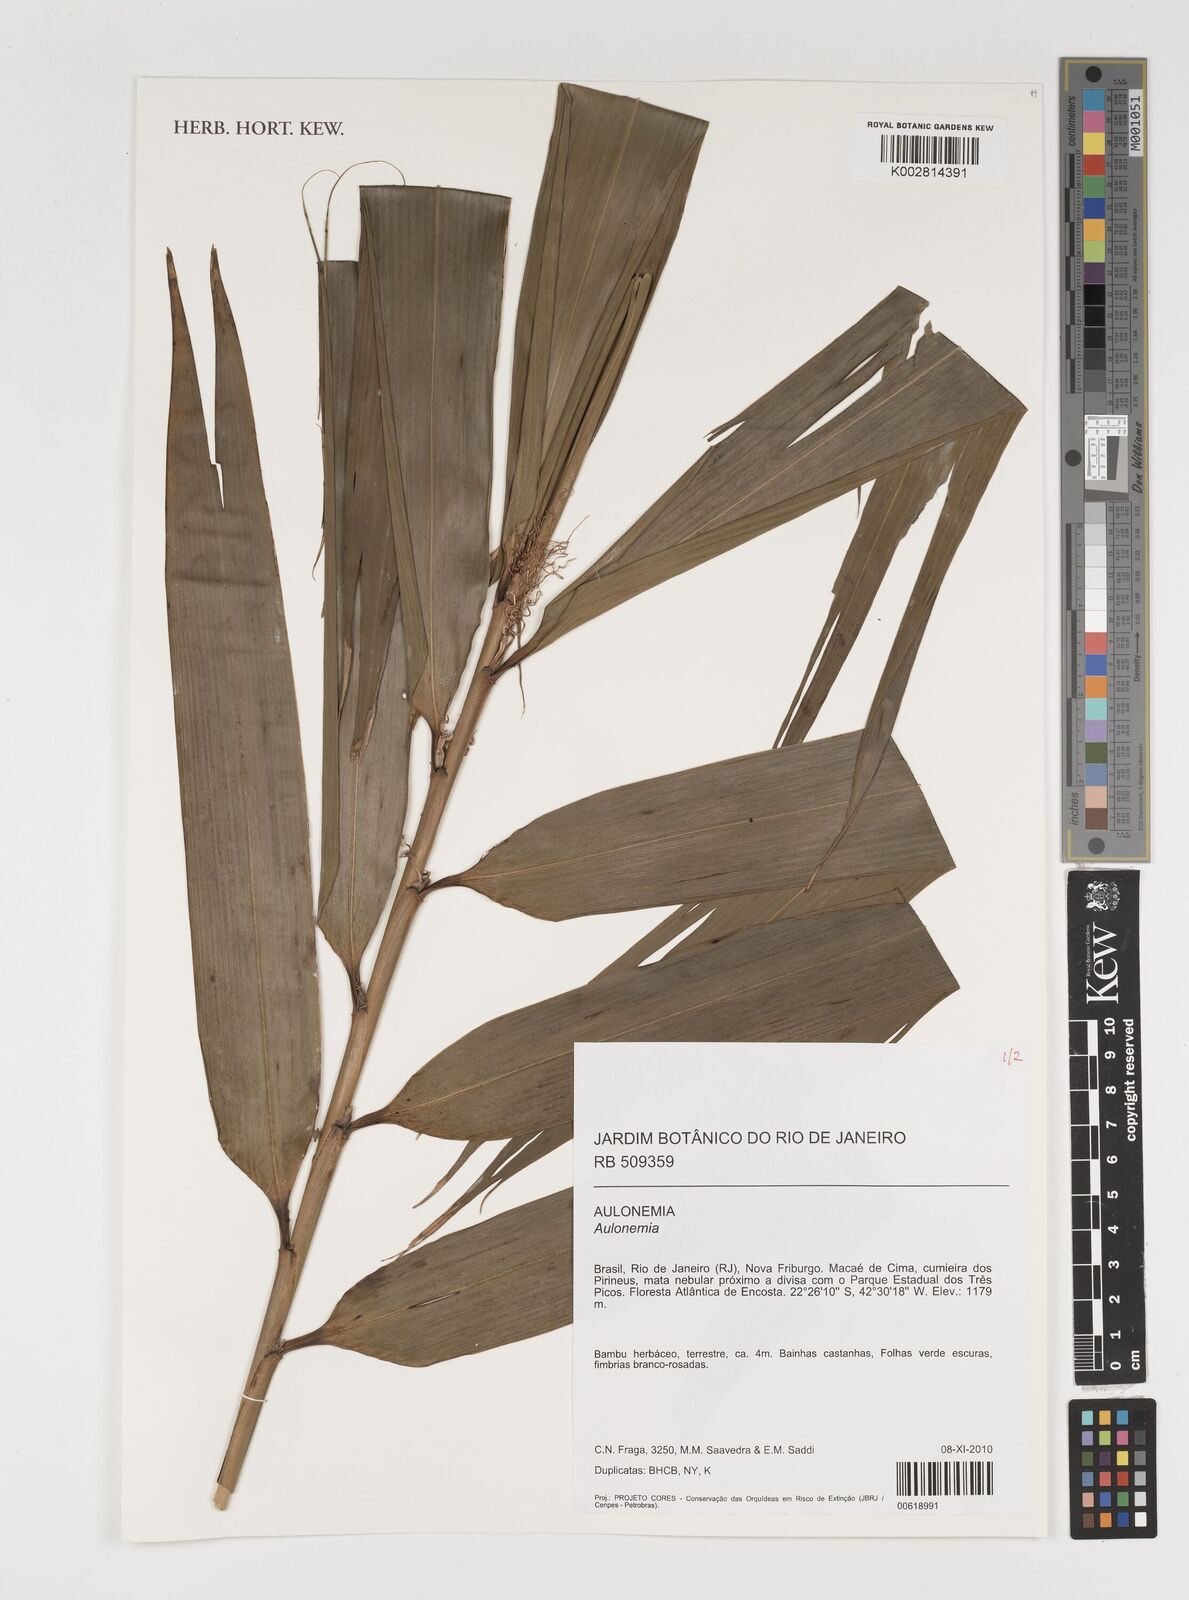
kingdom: Plantae
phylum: Tracheophyta
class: Liliopsida
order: Poales
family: Poaceae
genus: Aulonemia
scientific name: Aulonemia
